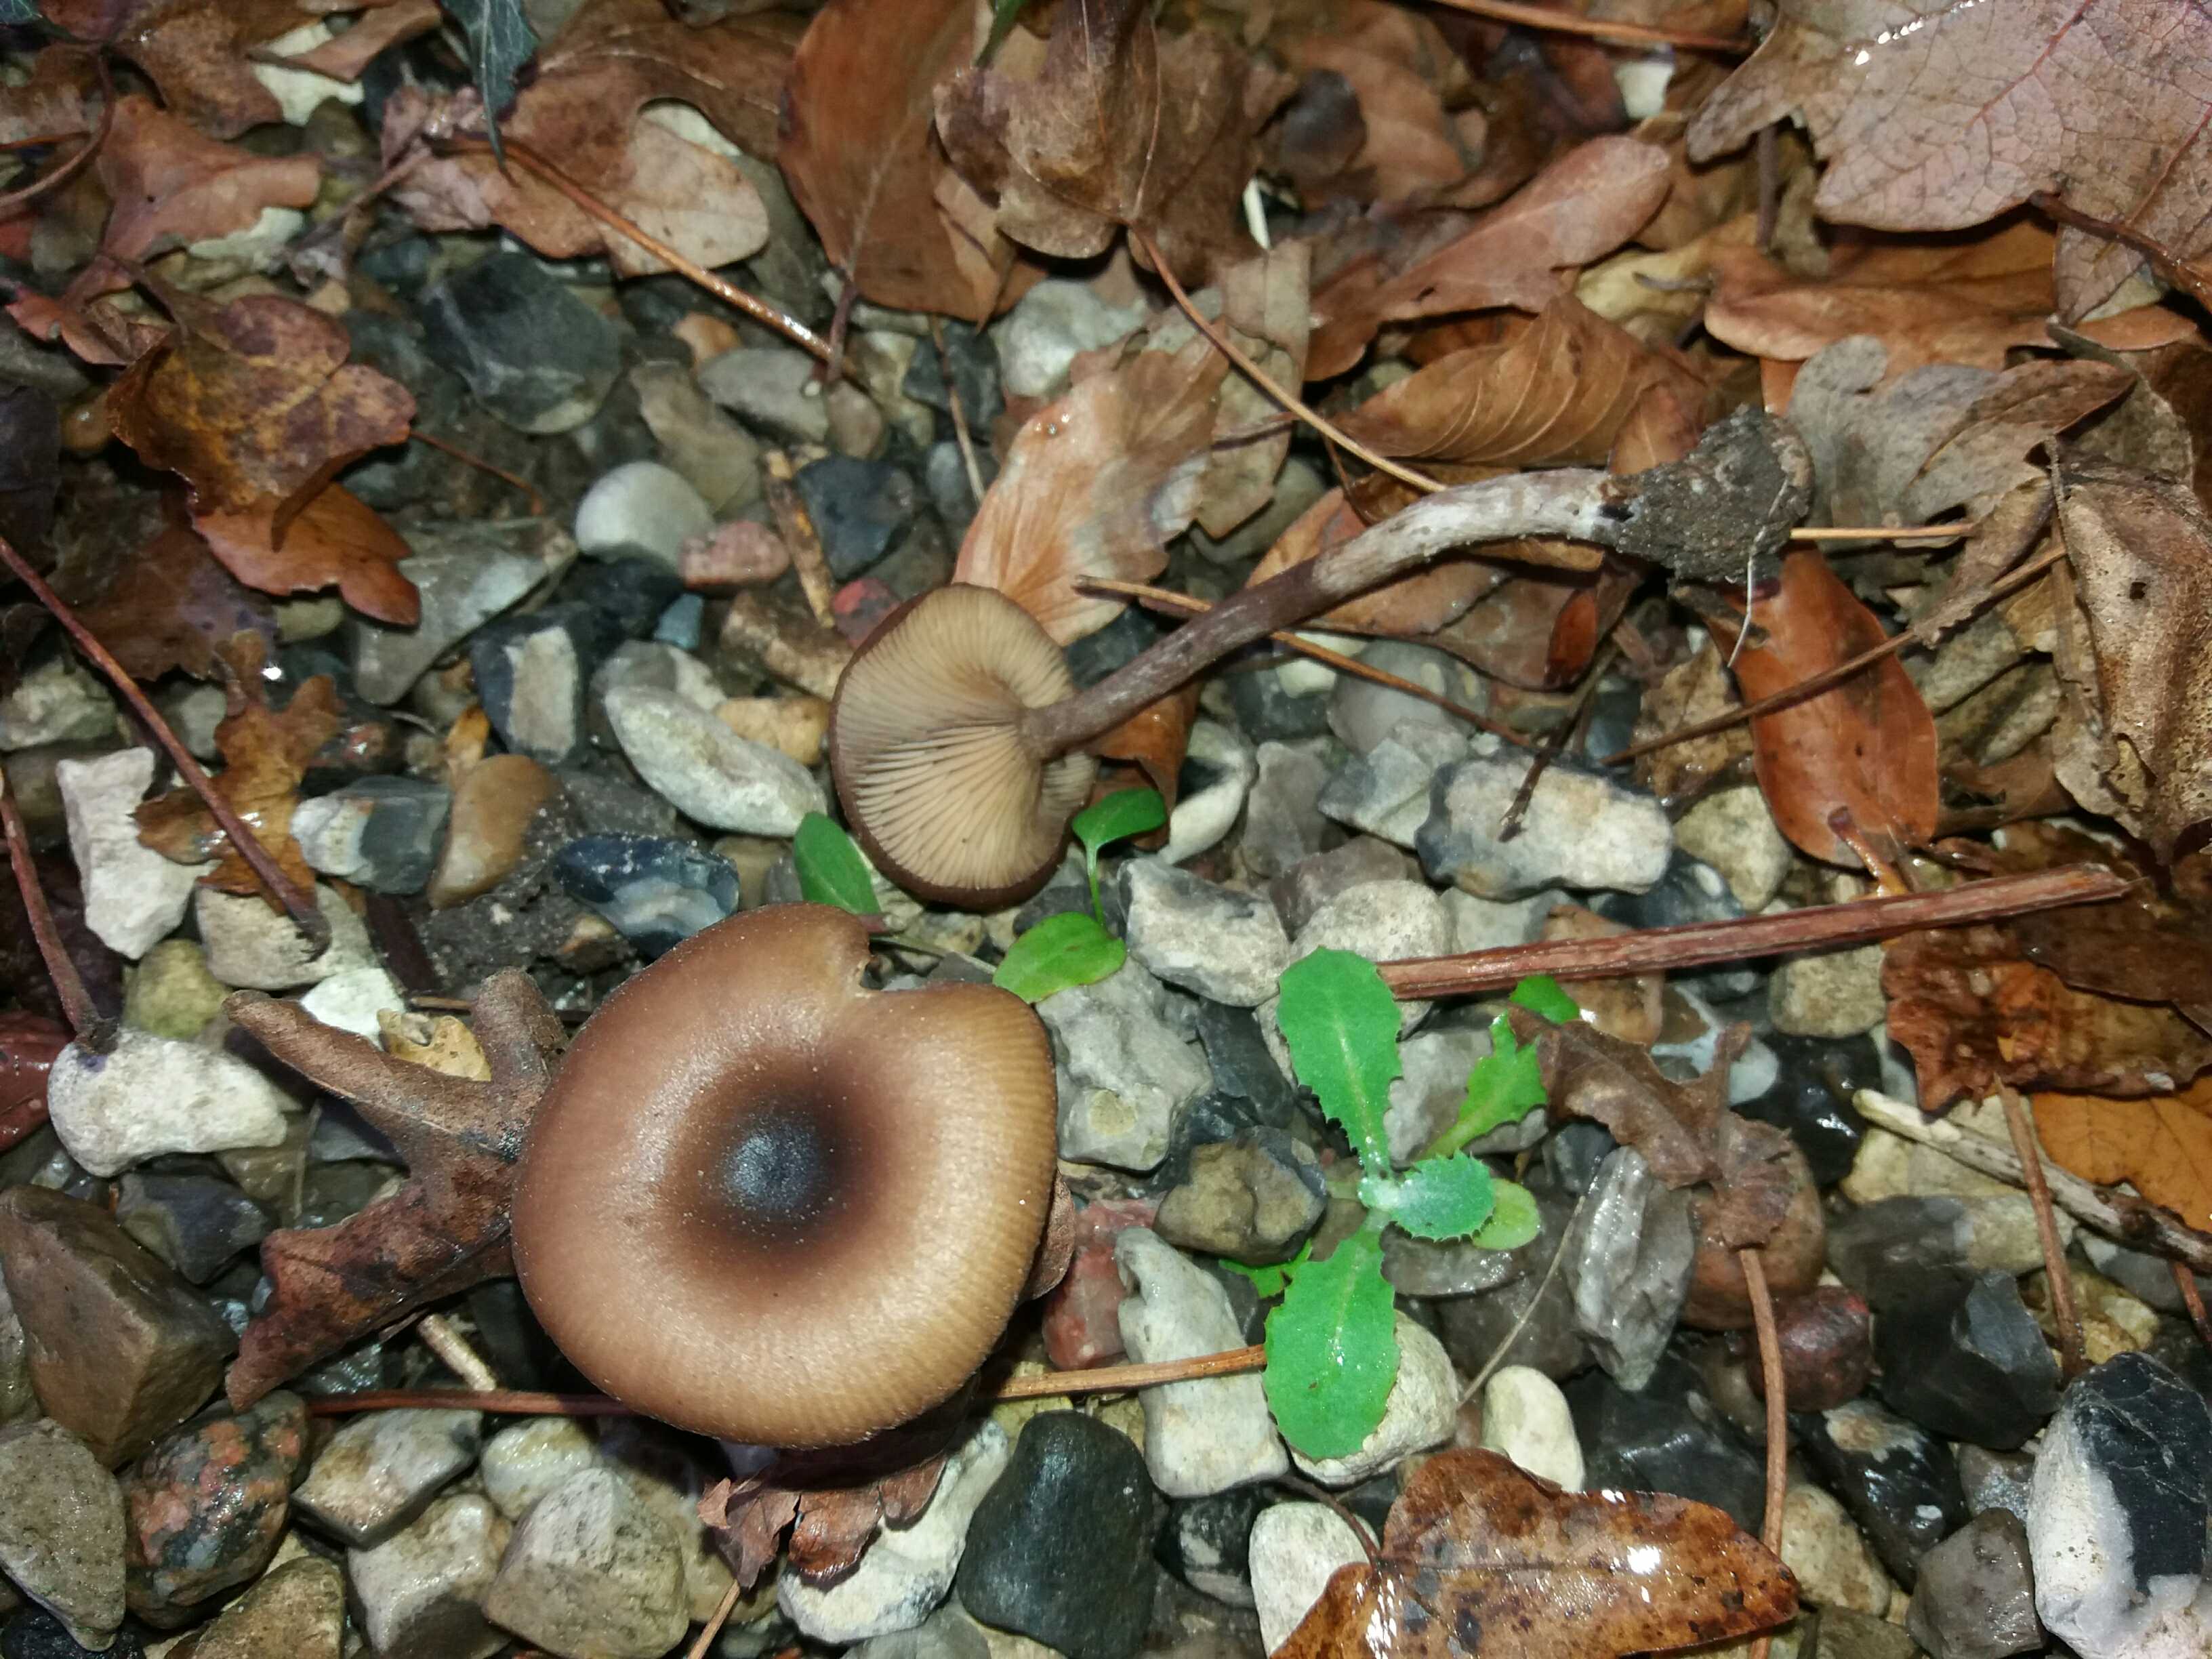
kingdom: Fungi
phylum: Basidiomycota
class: Agaricomycetes
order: Agaricales
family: Pseudoclitocybaceae
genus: Pseudoclitocybe
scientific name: Pseudoclitocybe cyathiformis
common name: almindelig bægertragthat
